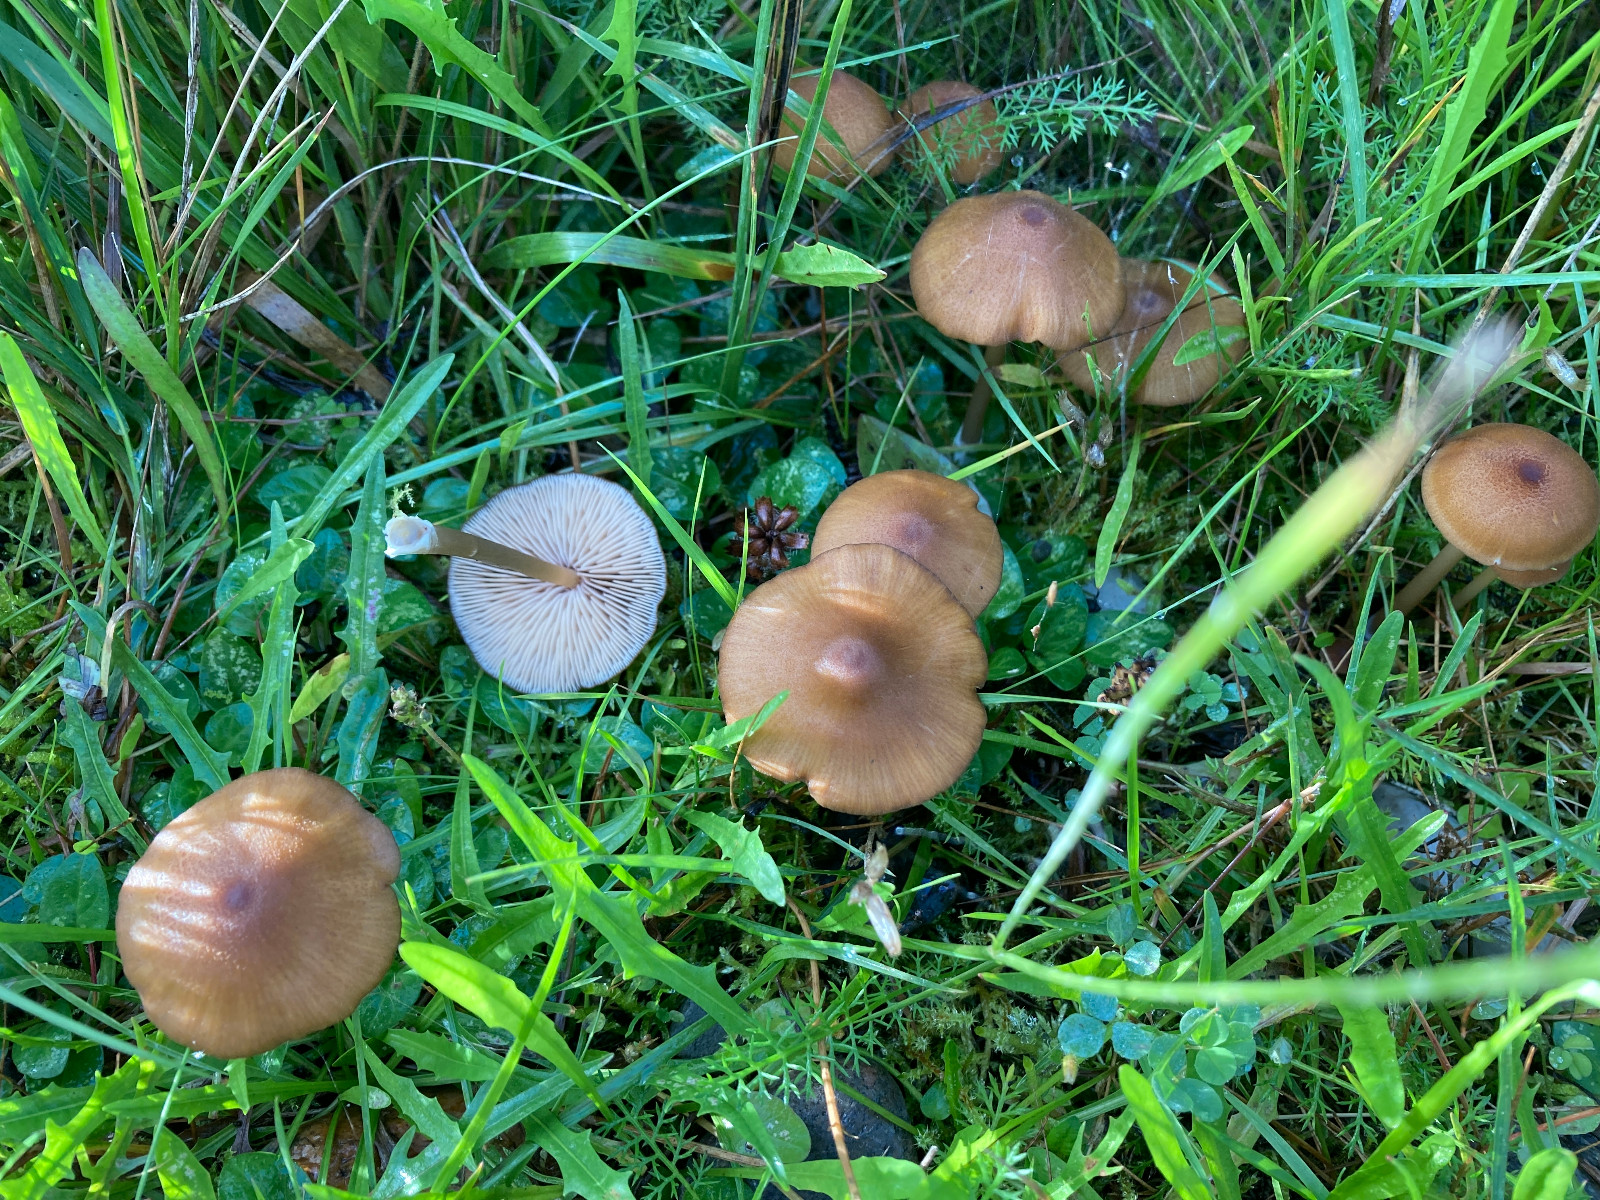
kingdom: Fungi
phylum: Basidiomycota
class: Agaricomycetes
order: Agaricales
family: Entolomataceae
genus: Entoloma
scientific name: Entoloma formosum
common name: brungul rødblad
